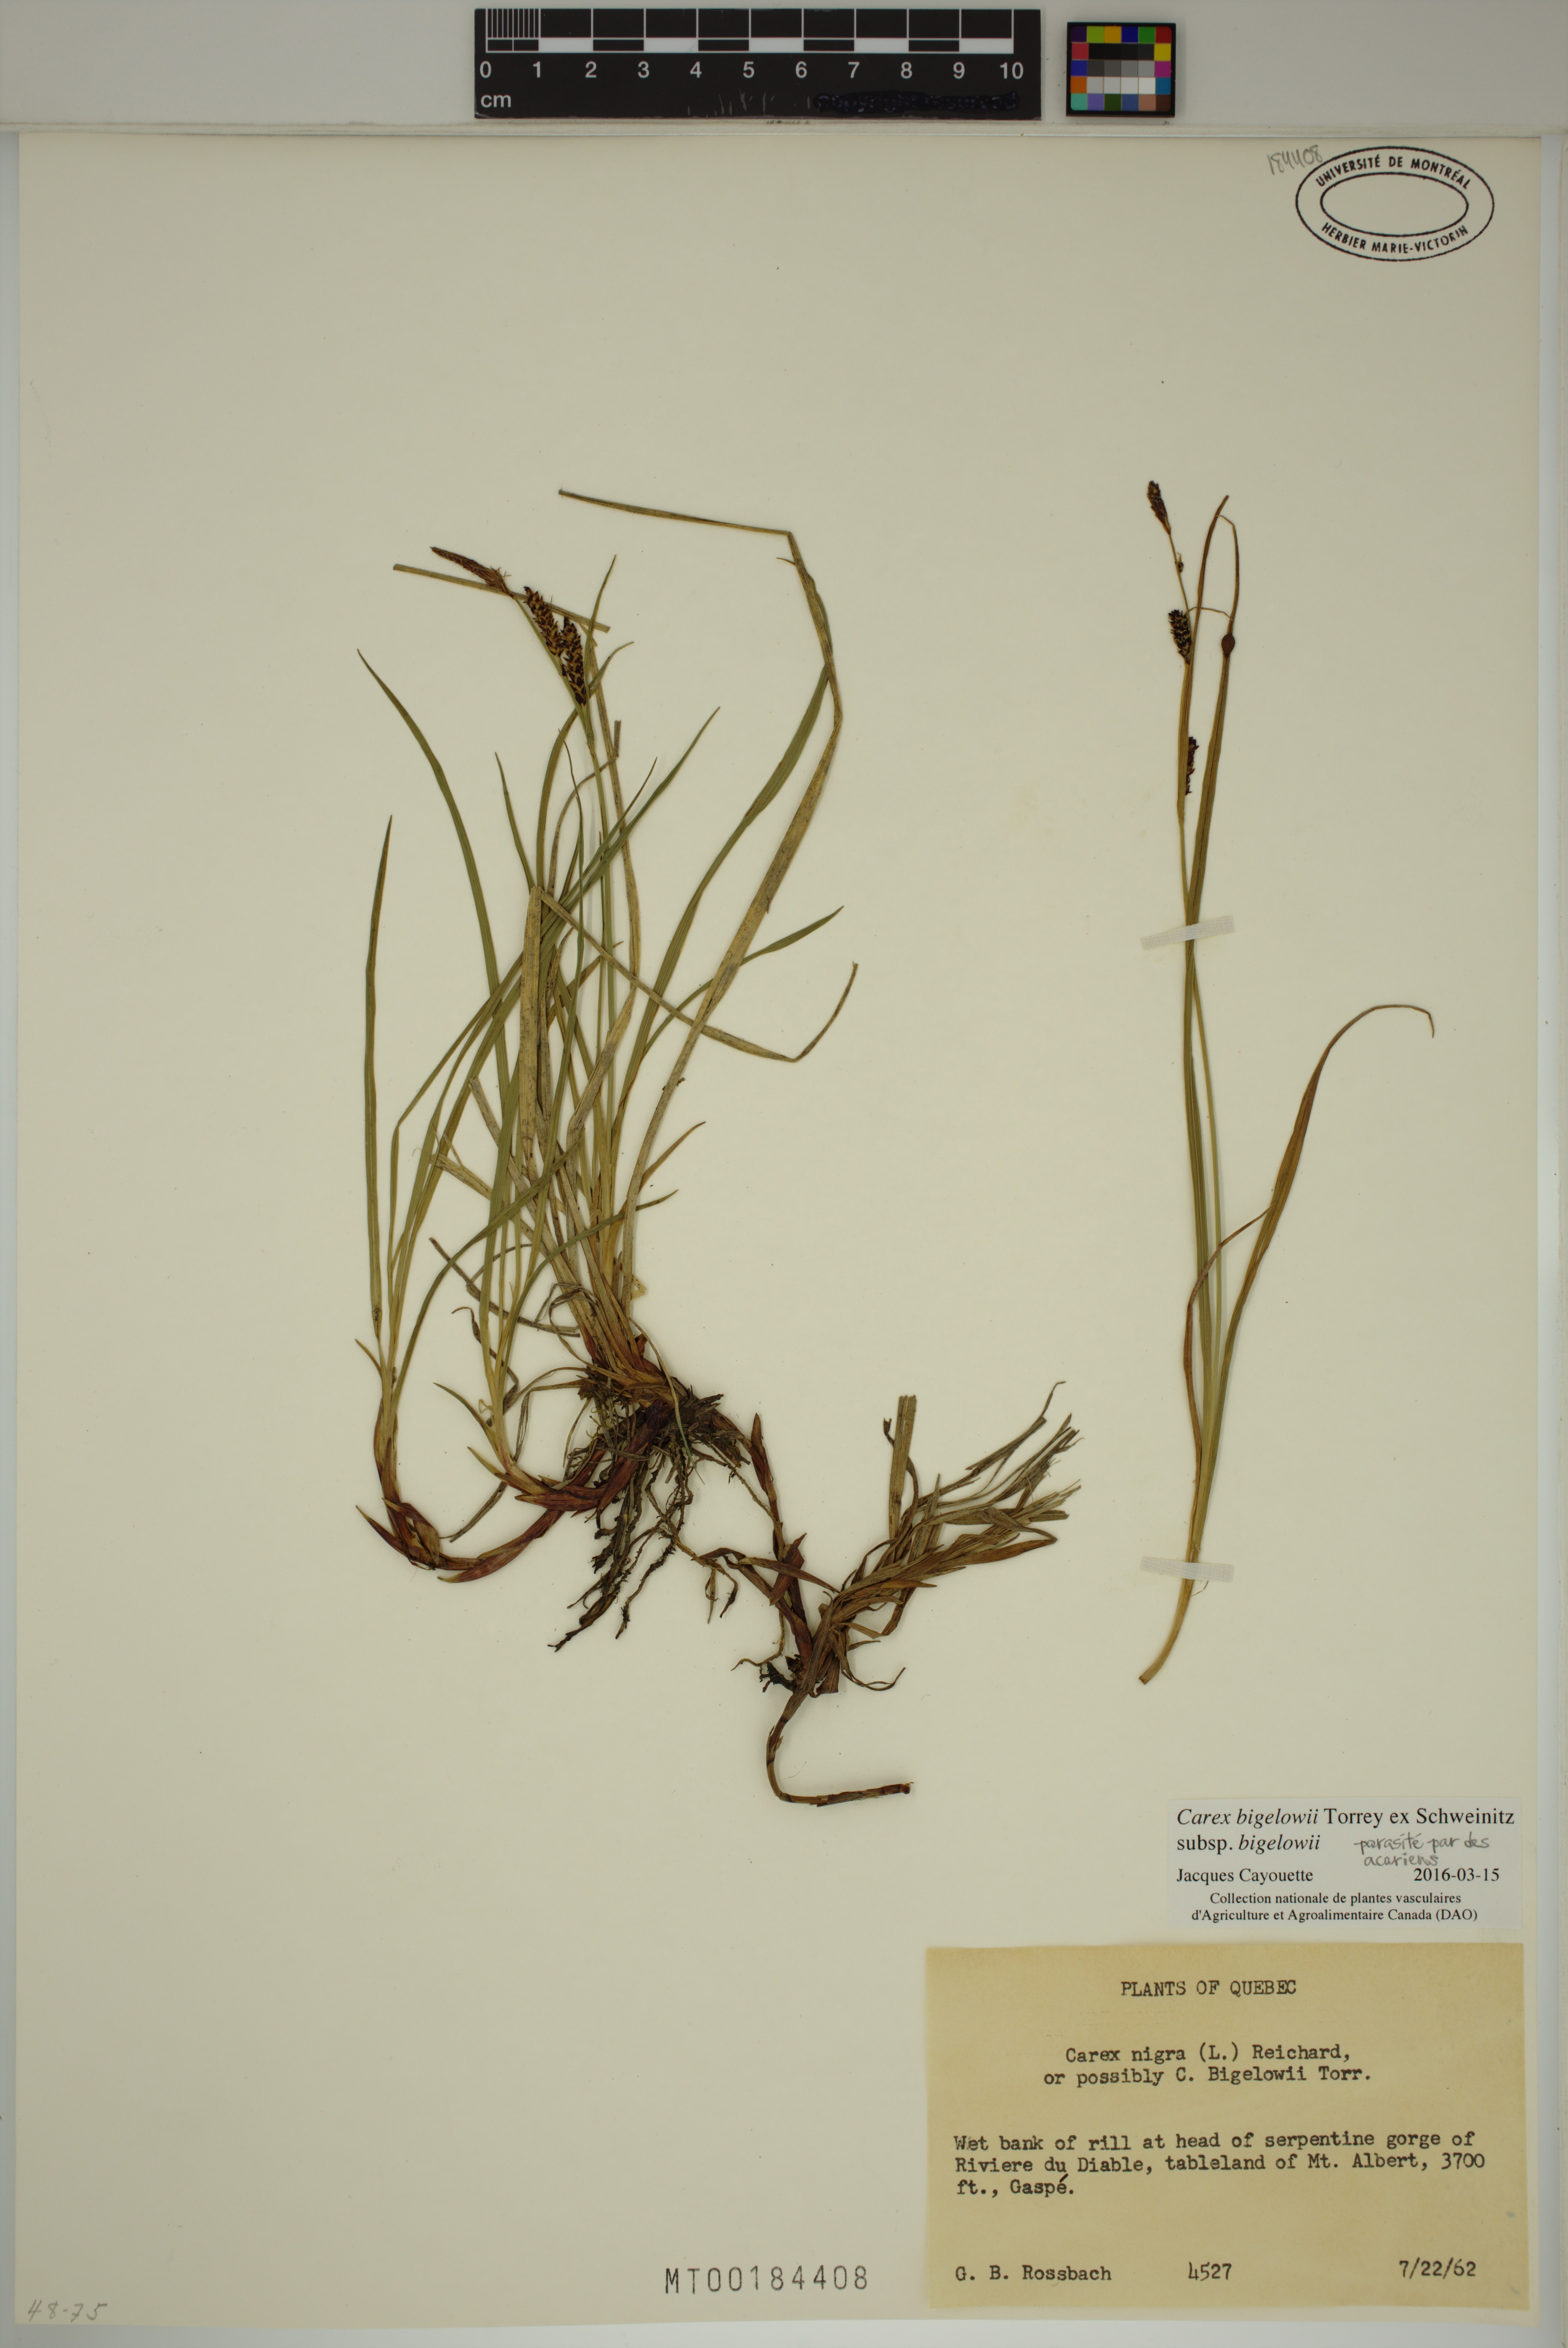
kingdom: Plantae
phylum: Tracheophyta
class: Liliopsida
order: Poales
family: Cyperaceae
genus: Carex
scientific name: Carex bigelowii
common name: Stiff sedge
